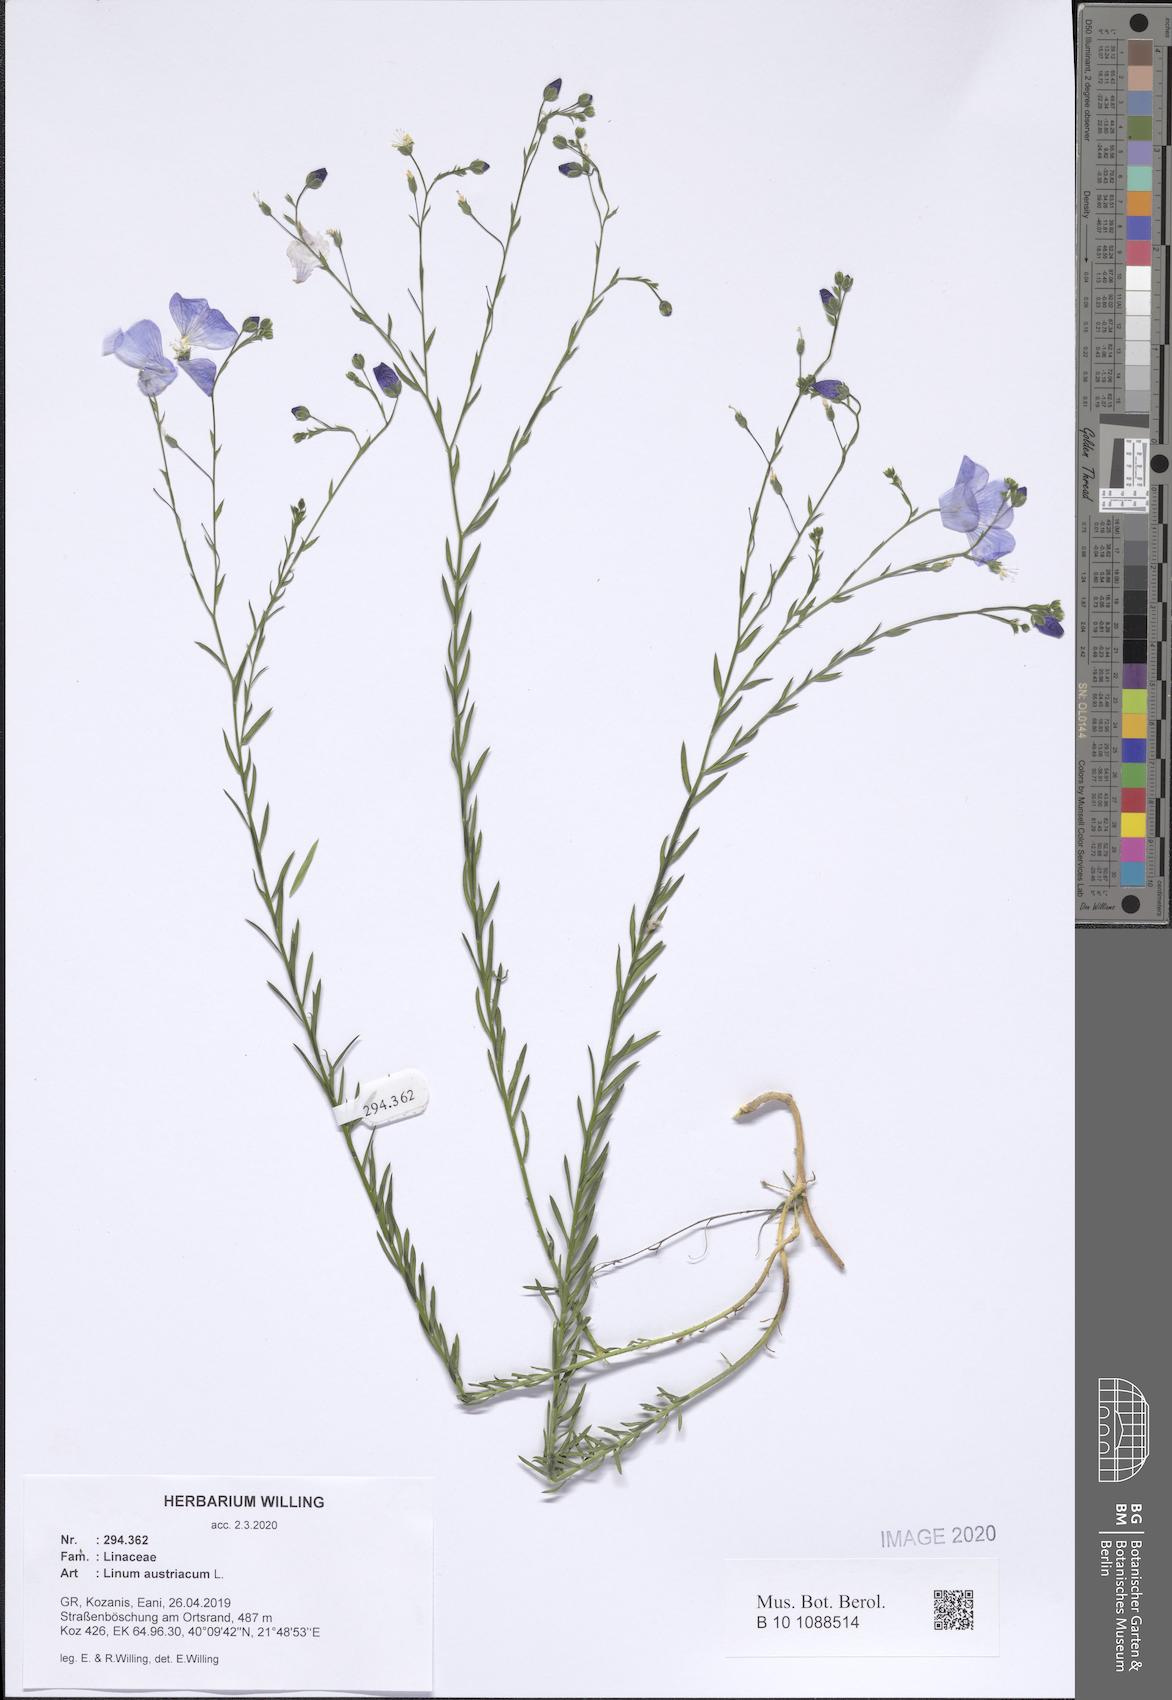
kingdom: Plantae
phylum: Tracheophyta
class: Magnoliopsida
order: Malpighiales
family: Linaceae
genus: Linum
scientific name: Linum austriacum
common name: Austrian flax
